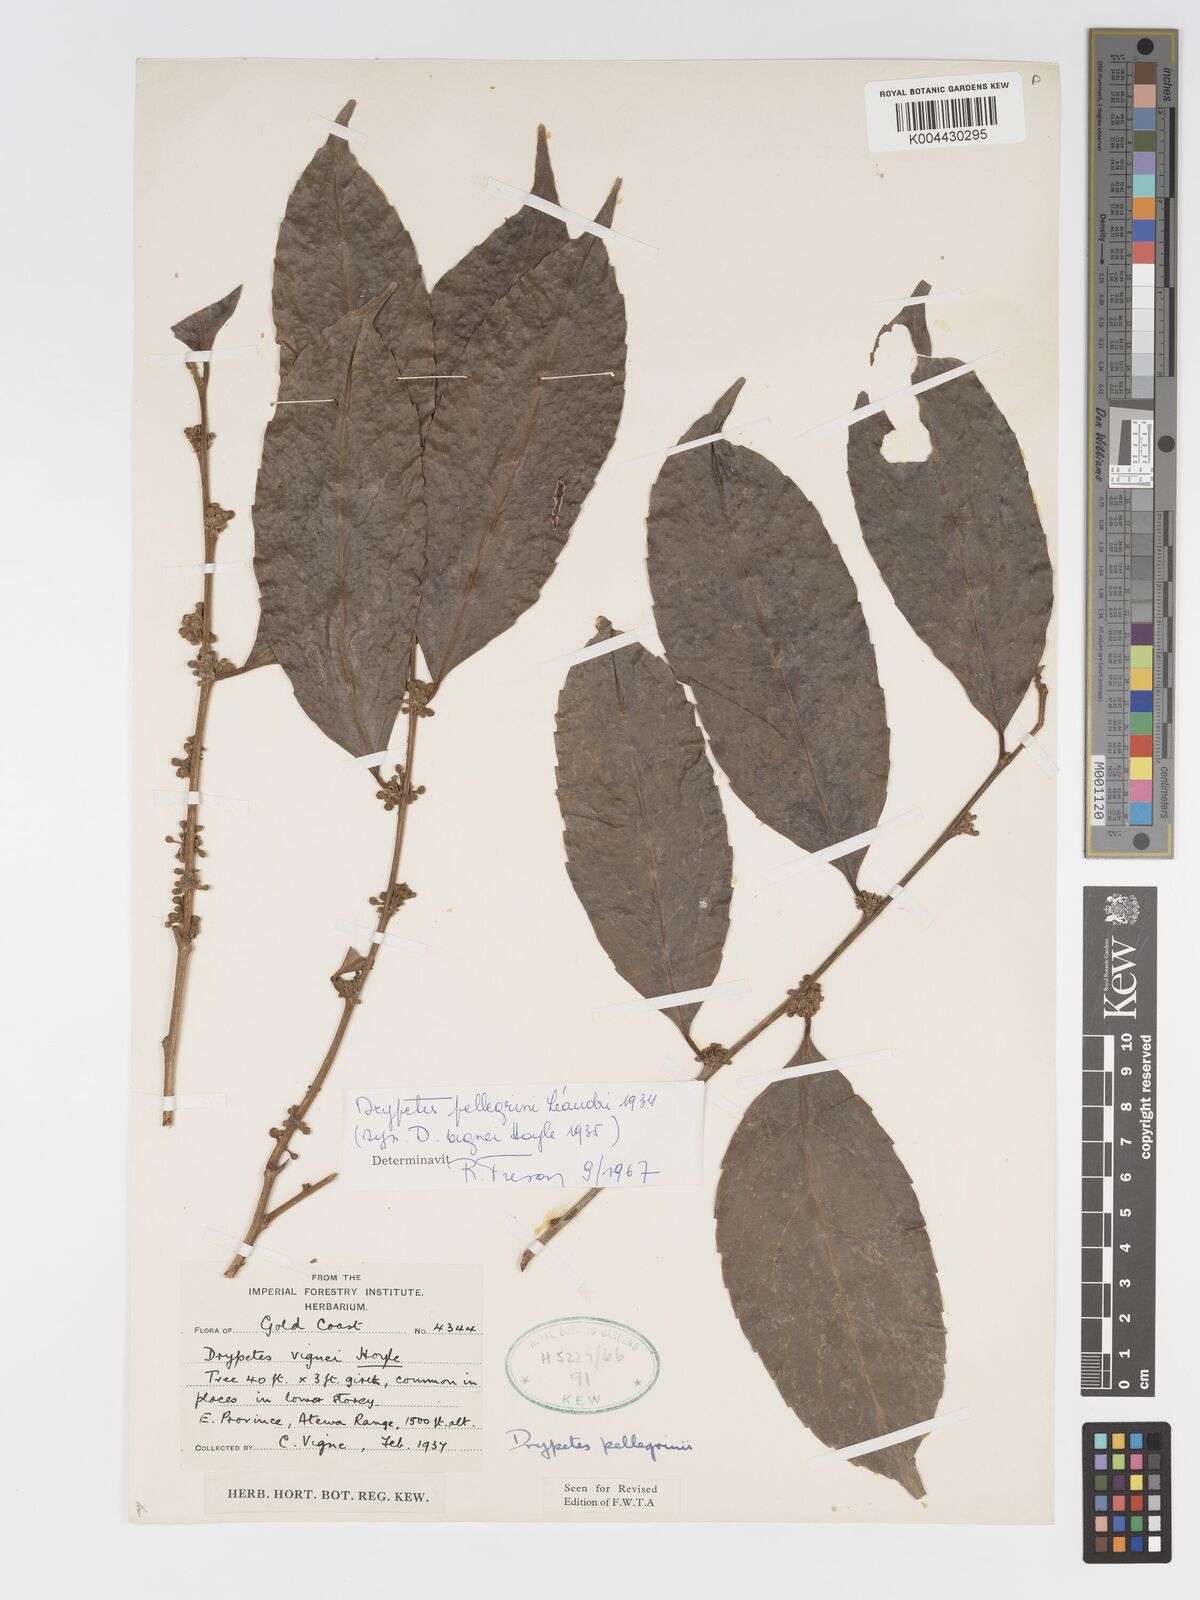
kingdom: Plantae
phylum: Tracheophyta
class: Magnoliopsida
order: Malpighiales
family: Putranjivaceae
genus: Drypetes
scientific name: Drypetes pellegrinii
